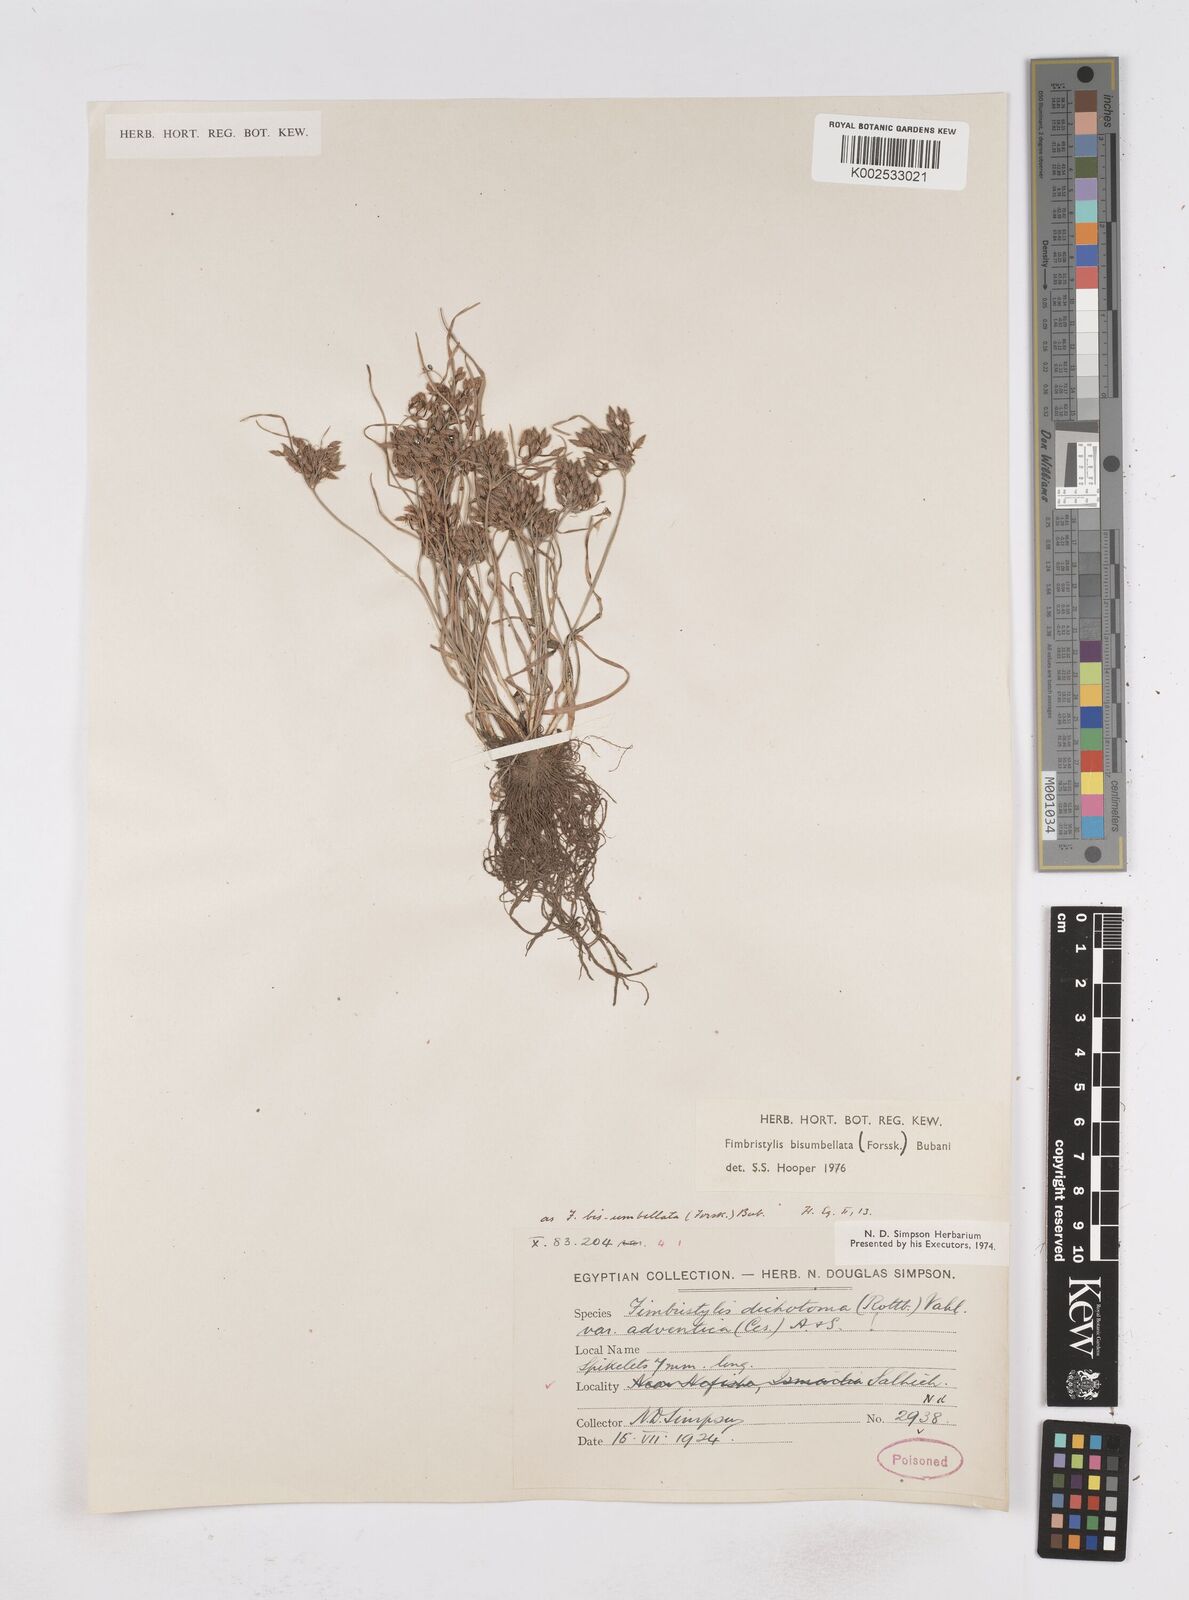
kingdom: Plantae
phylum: Tracheophyta
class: Liliopsida
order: Poales
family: Cyperaceae
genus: Fimbristylis
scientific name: Fimbristylis bisumbellata
